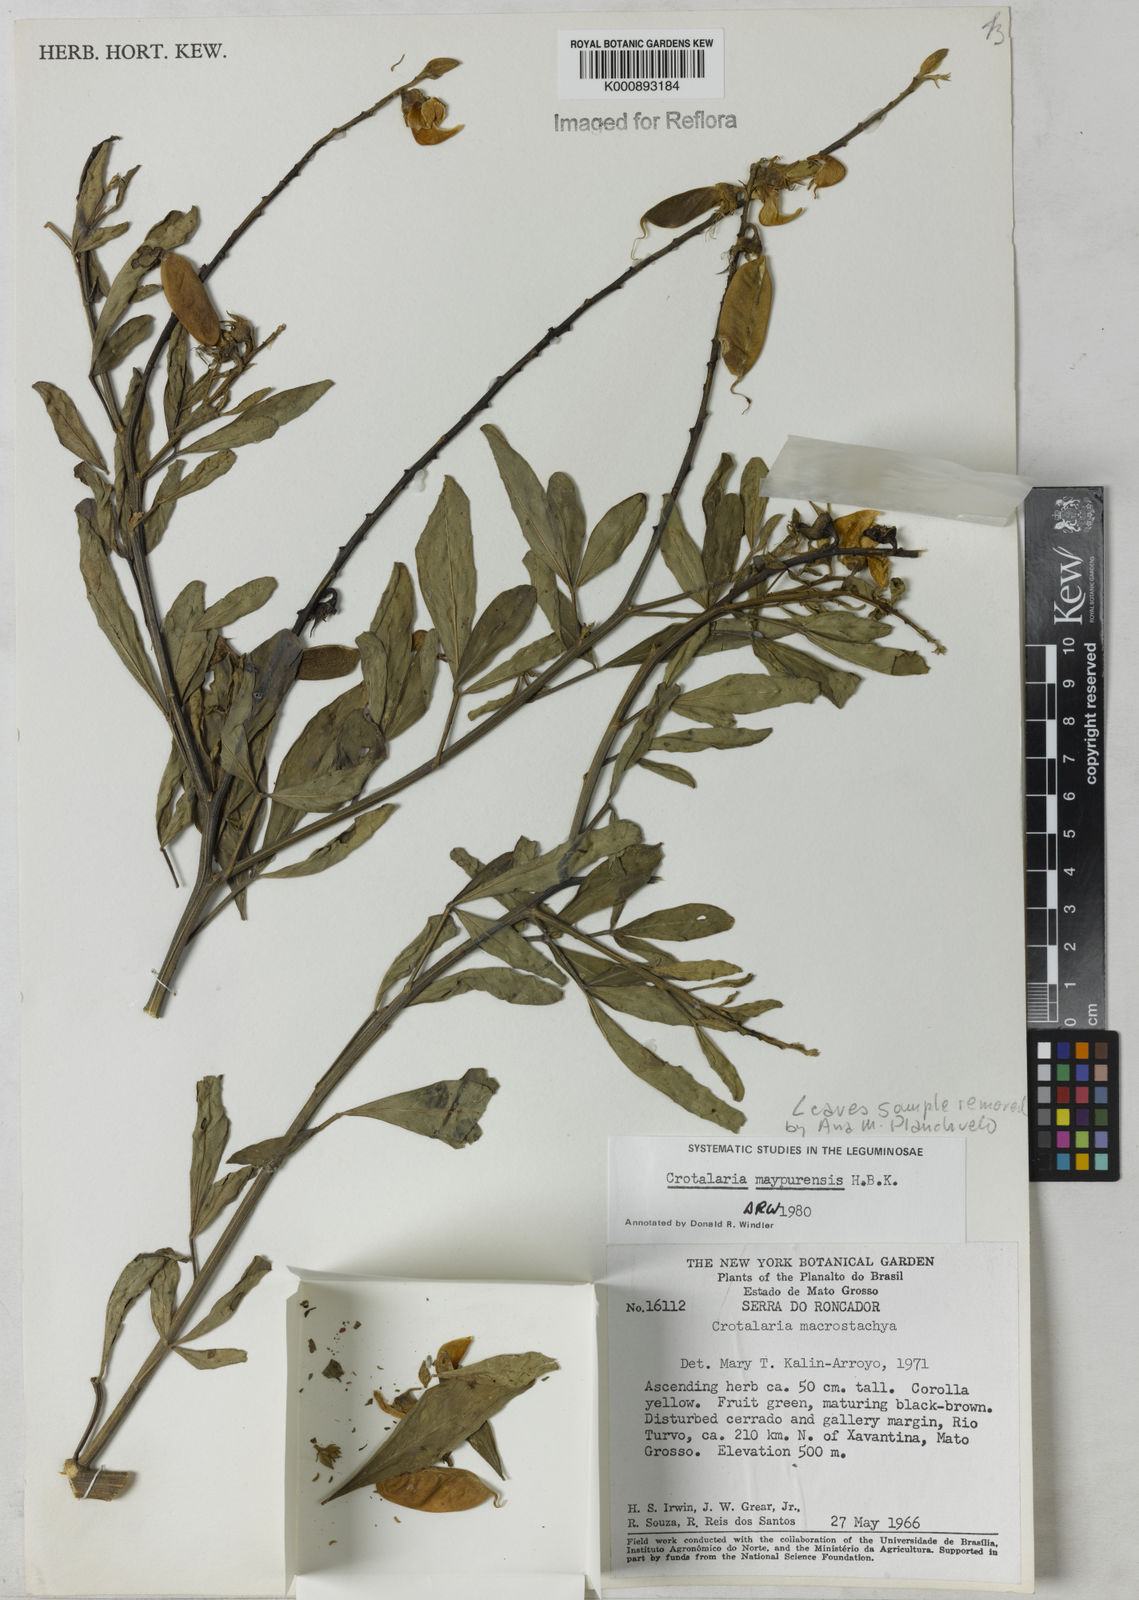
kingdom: Plantae
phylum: Tracheophyta
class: Magnoliopsida
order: Fabales
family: Fabaceae
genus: Crotalaria
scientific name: Crotalaria maypurensis
